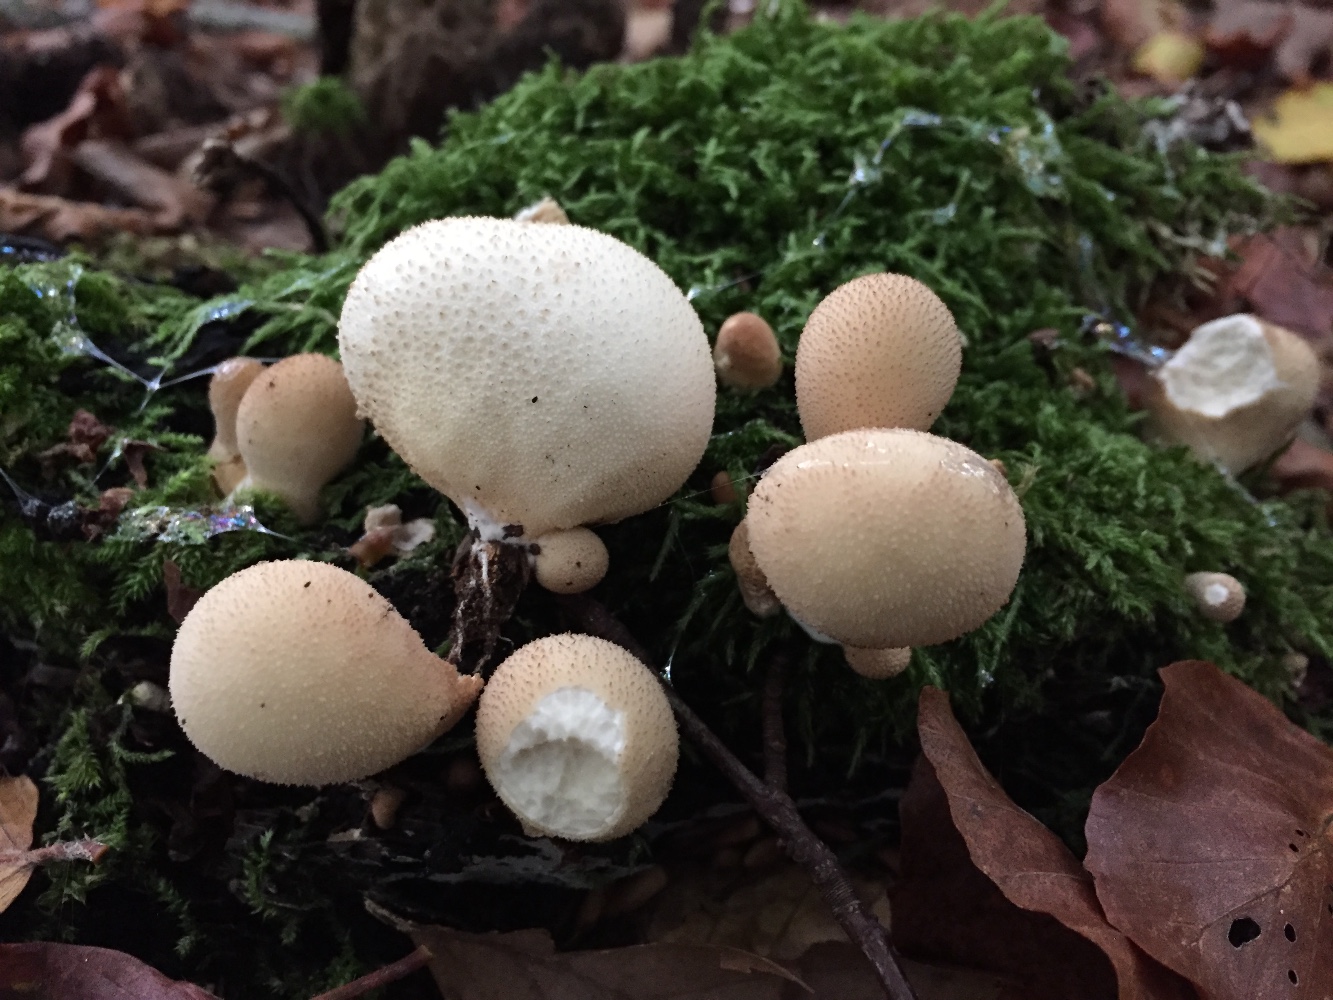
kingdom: Fungi
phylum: Basidiomycota
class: Agaricomycetes
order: Agaricales
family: Lycoperdaceae
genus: Apioperdon
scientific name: Apioperdon pyriforme
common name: pære-støvbold
